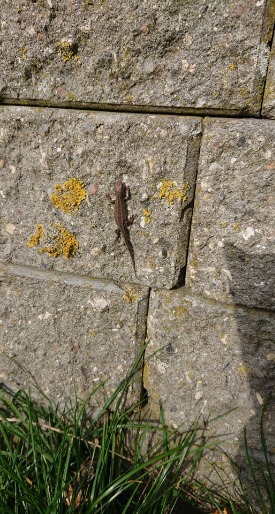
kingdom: Animalia
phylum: Chordata
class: Squamata
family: Lacertidae
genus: Lacerta
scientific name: Lacerta agilis
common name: Markfirben
